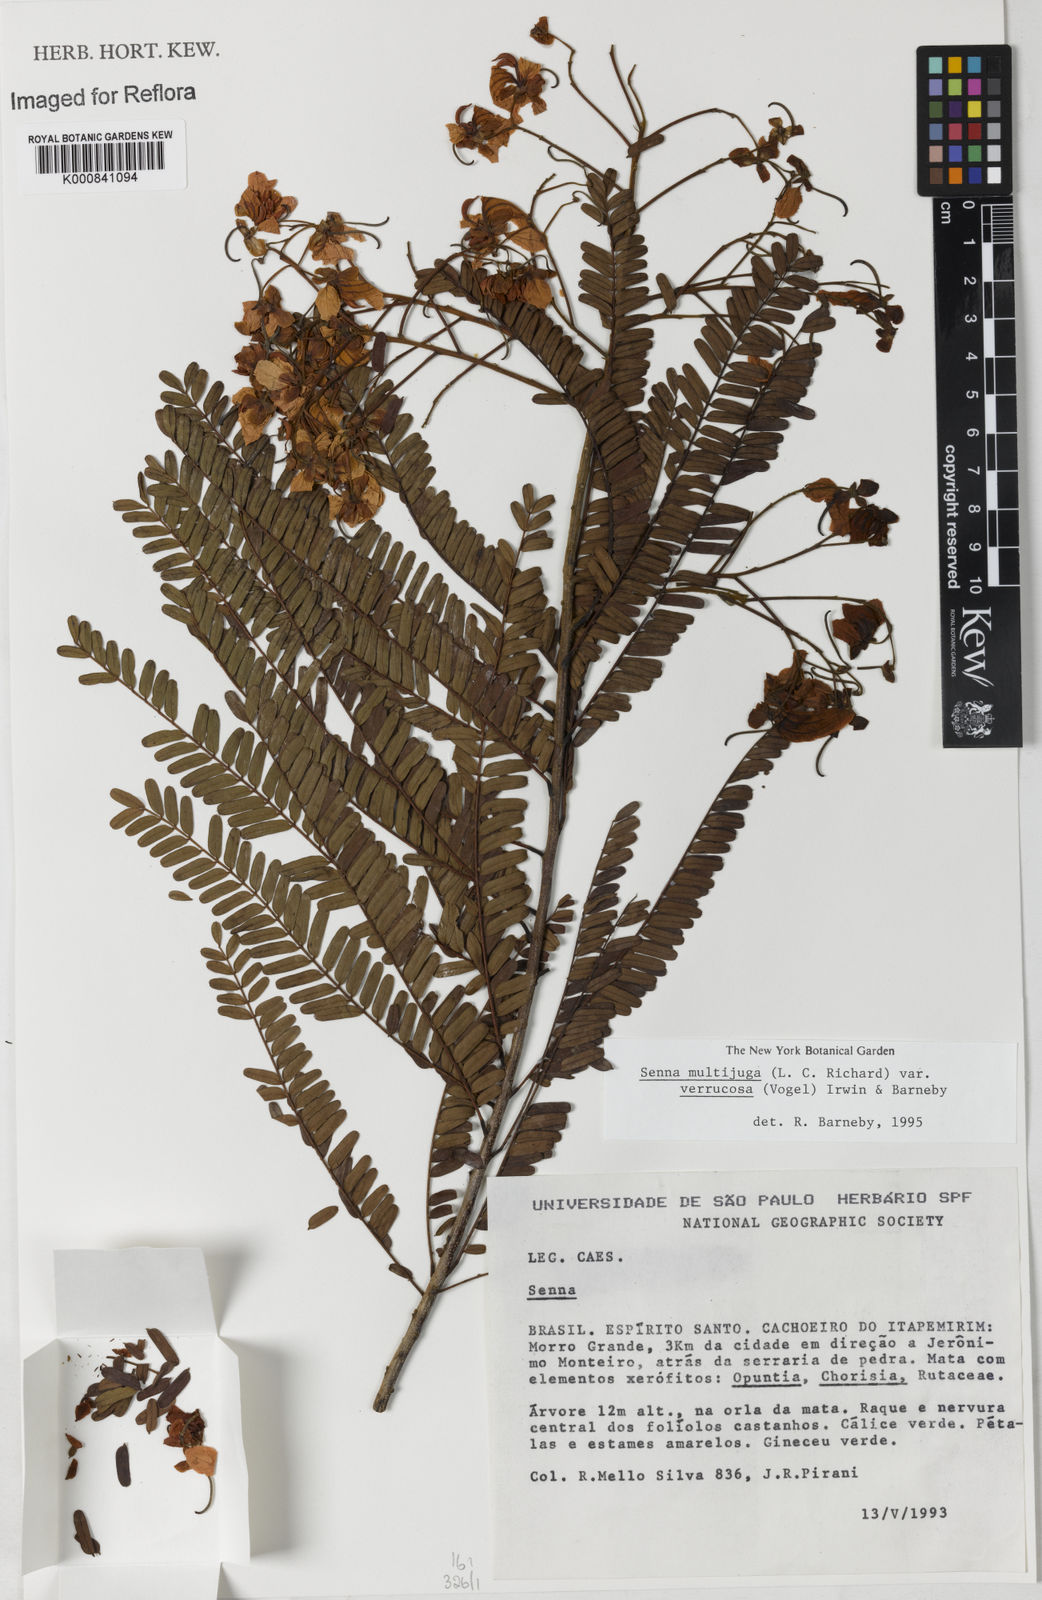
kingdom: Plantae
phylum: Tracheophyta
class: Magnoliopsida
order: Fabales
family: Fabaceae
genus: Senna
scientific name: Senna multijuga
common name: False sicklepod
